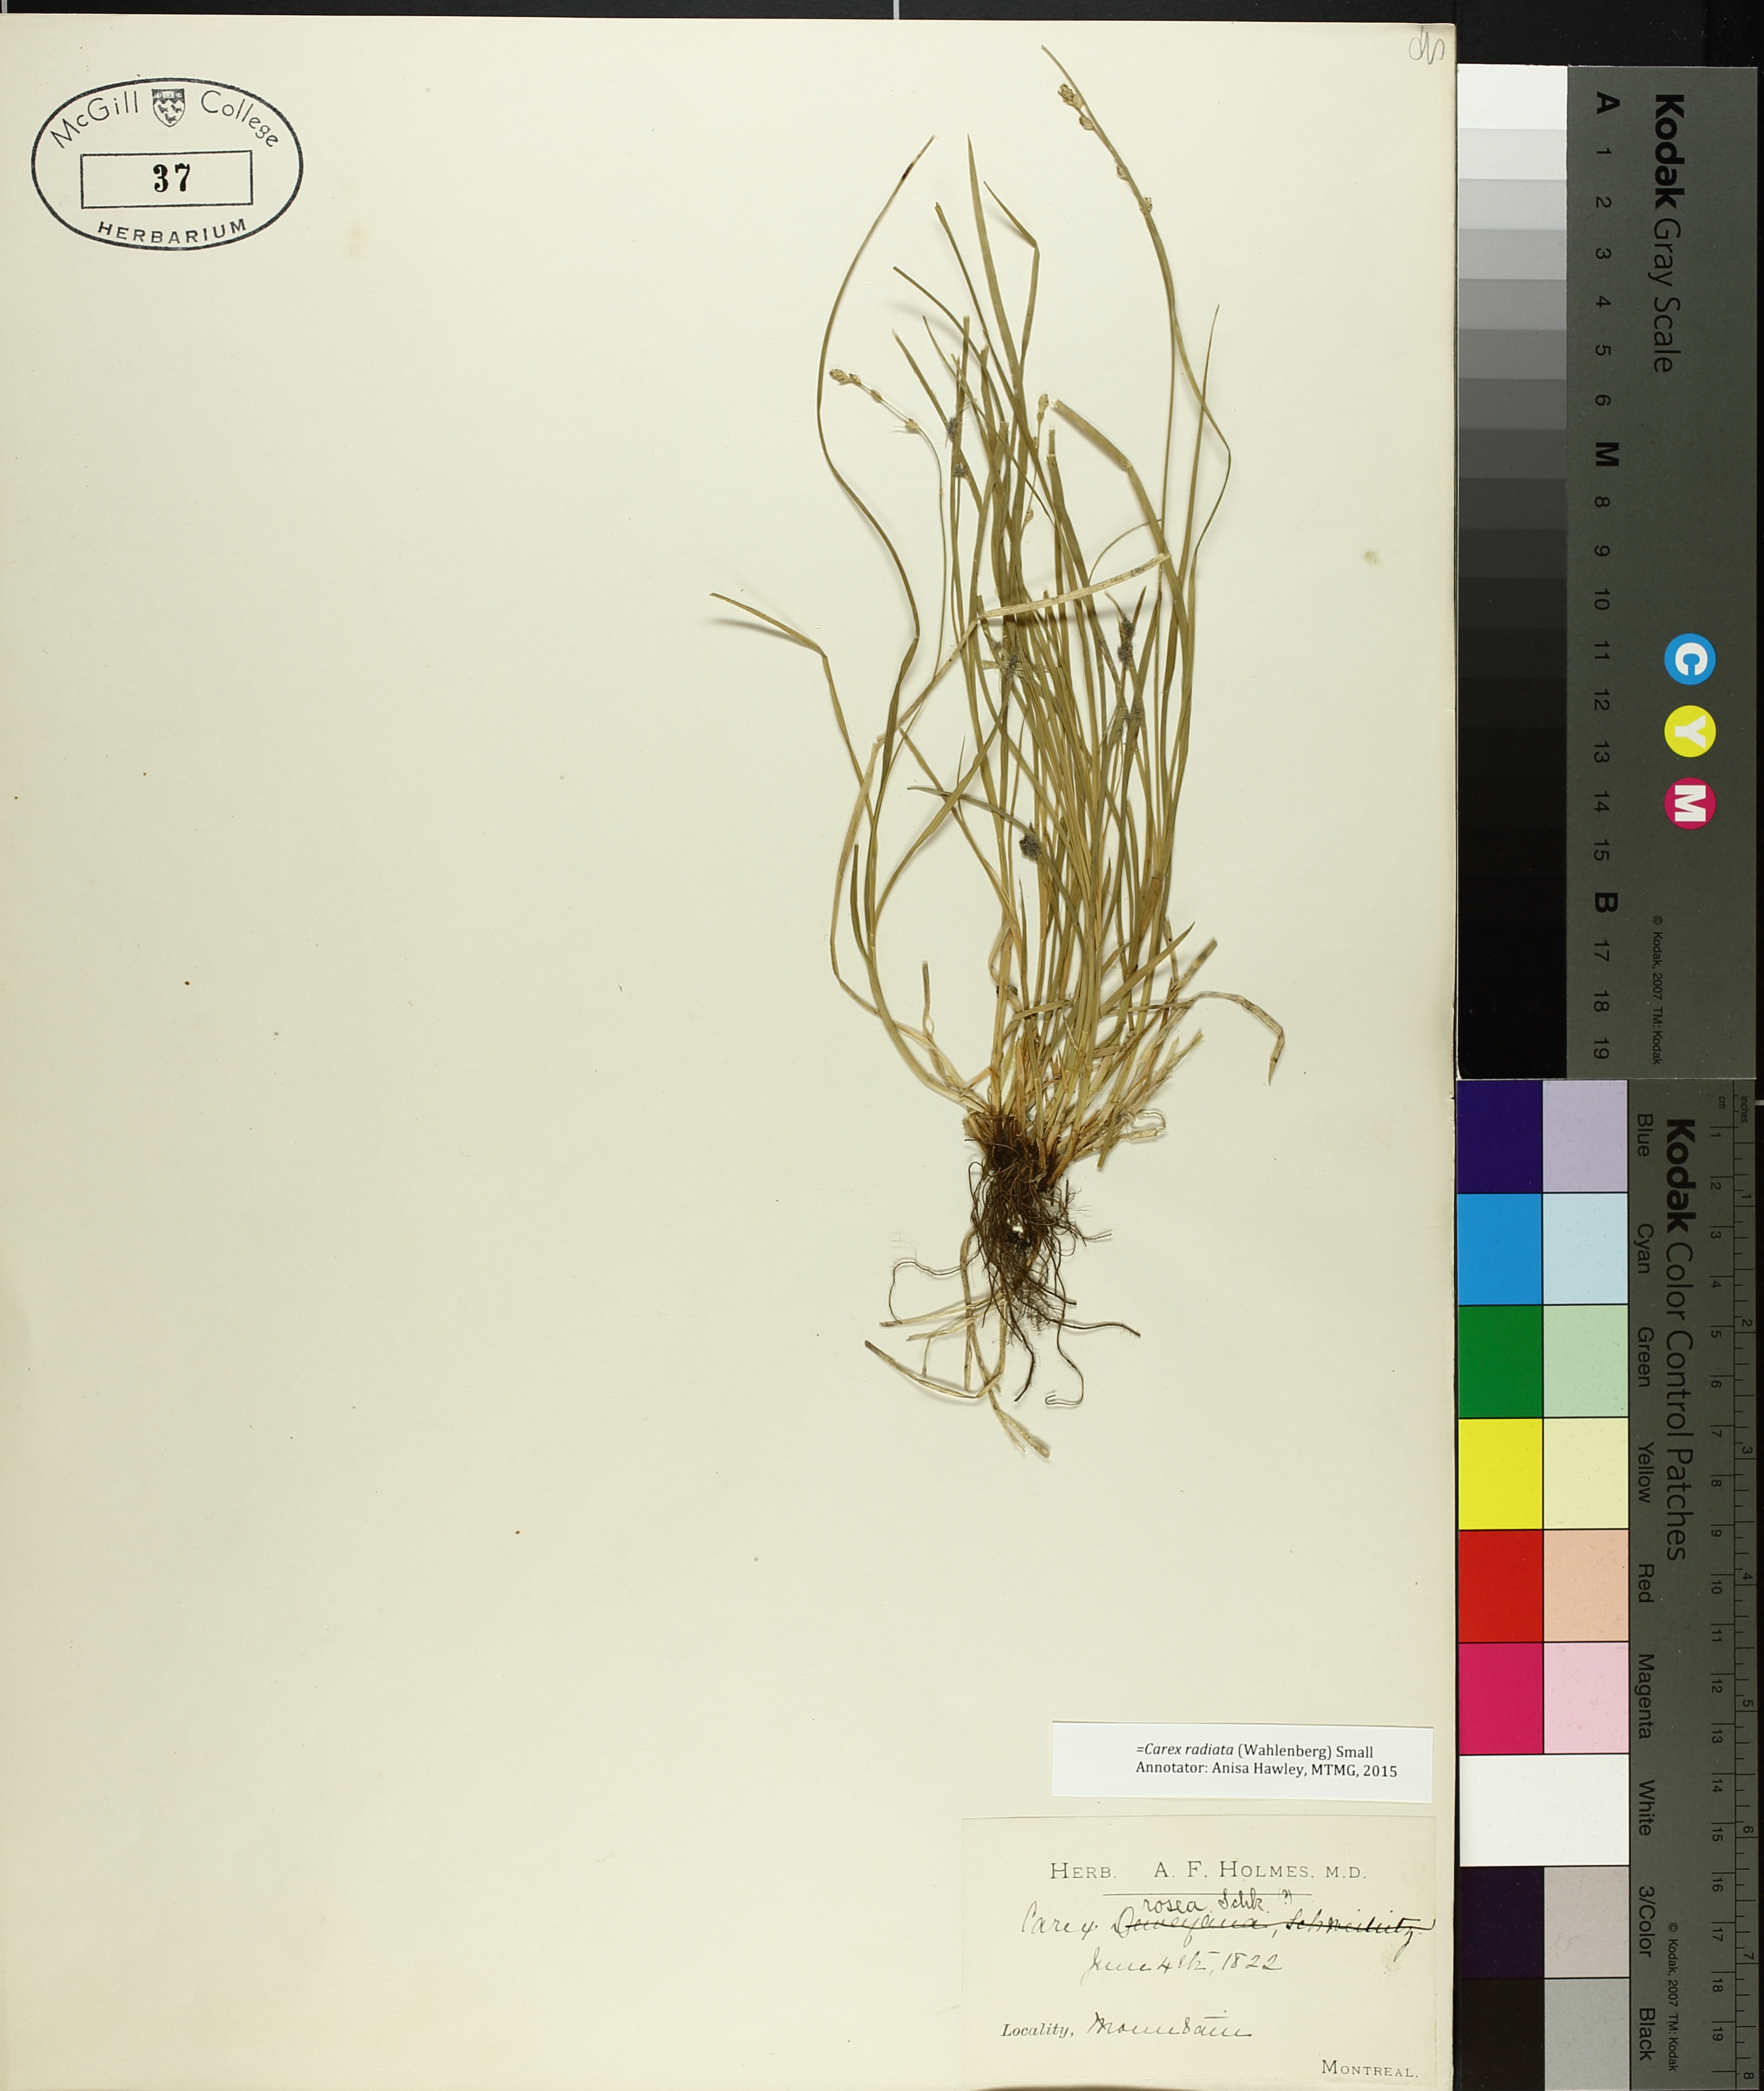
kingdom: Plantae
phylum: Tracheophyta
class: Liliopsida
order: Poales
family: Cyperaceae
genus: Carex
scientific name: Carex rosea
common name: Curly-styled wood sedge
